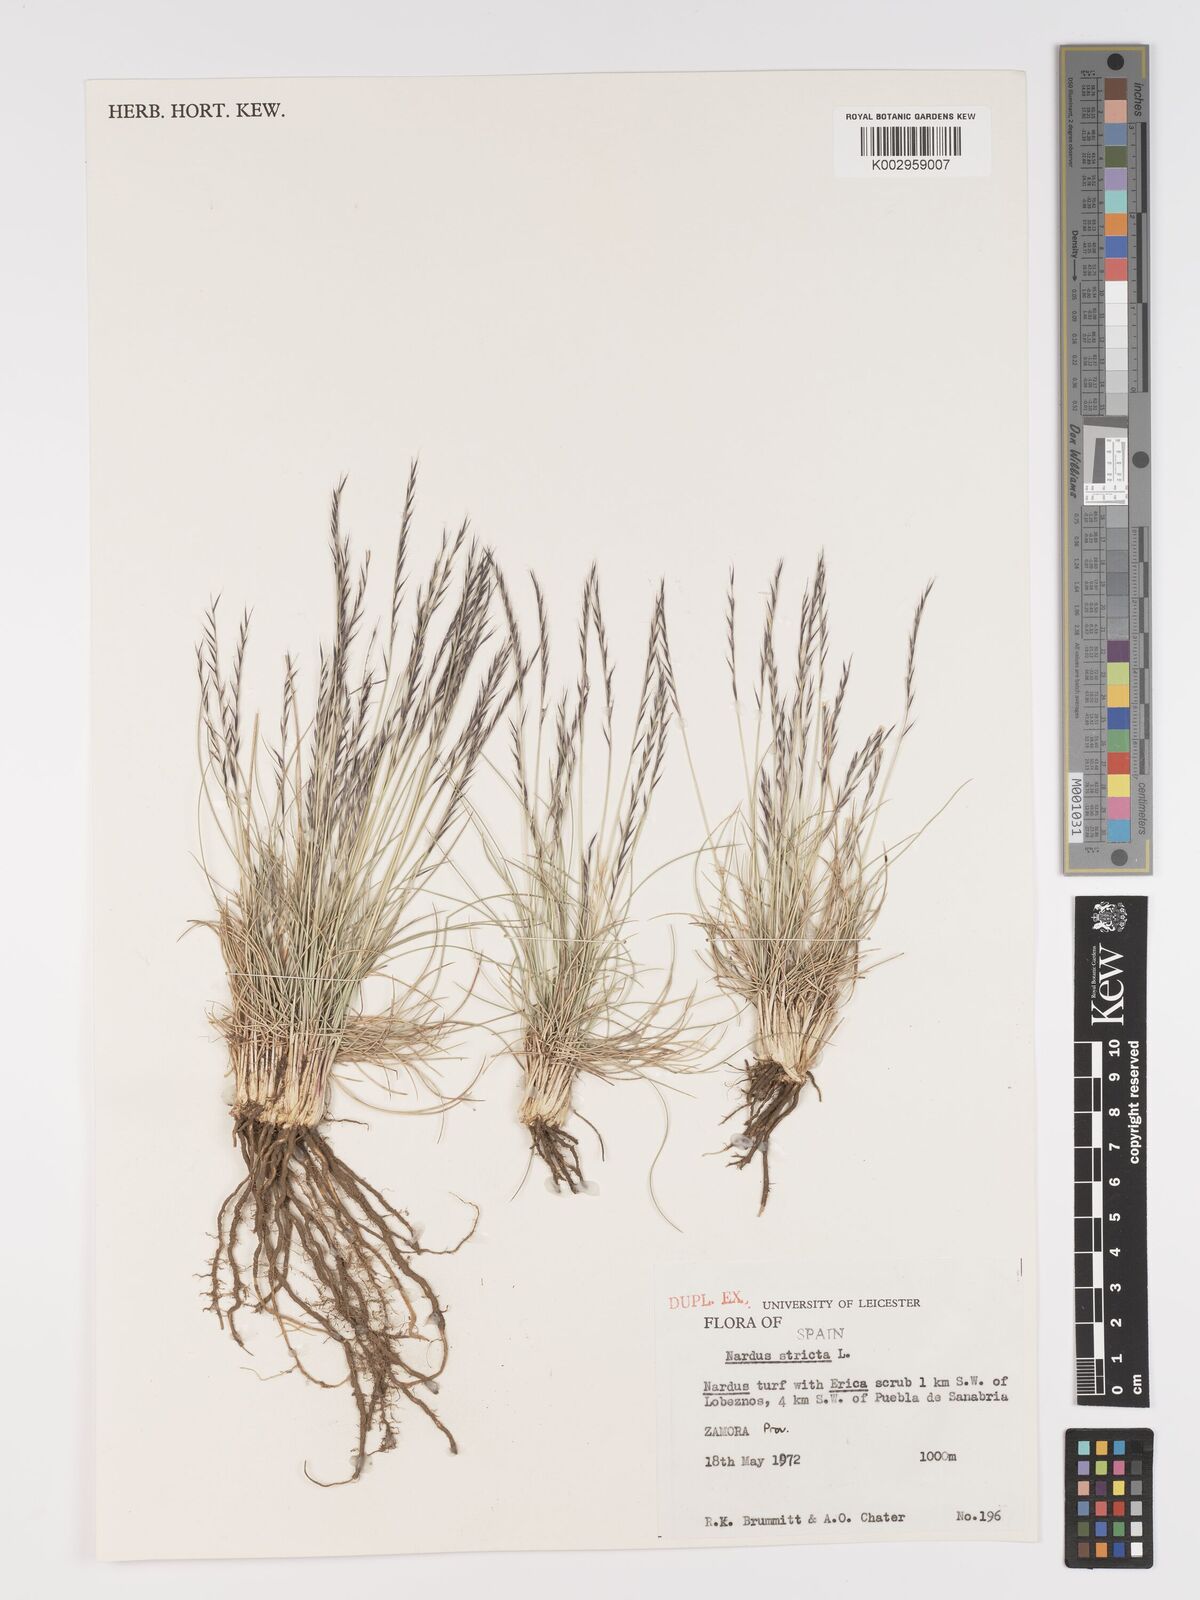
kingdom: Plantae
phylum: Tracheophyta
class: Liliopsida
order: Poales
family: Poaceae
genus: Nardus
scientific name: Nardus stricta
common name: Mat-grass
